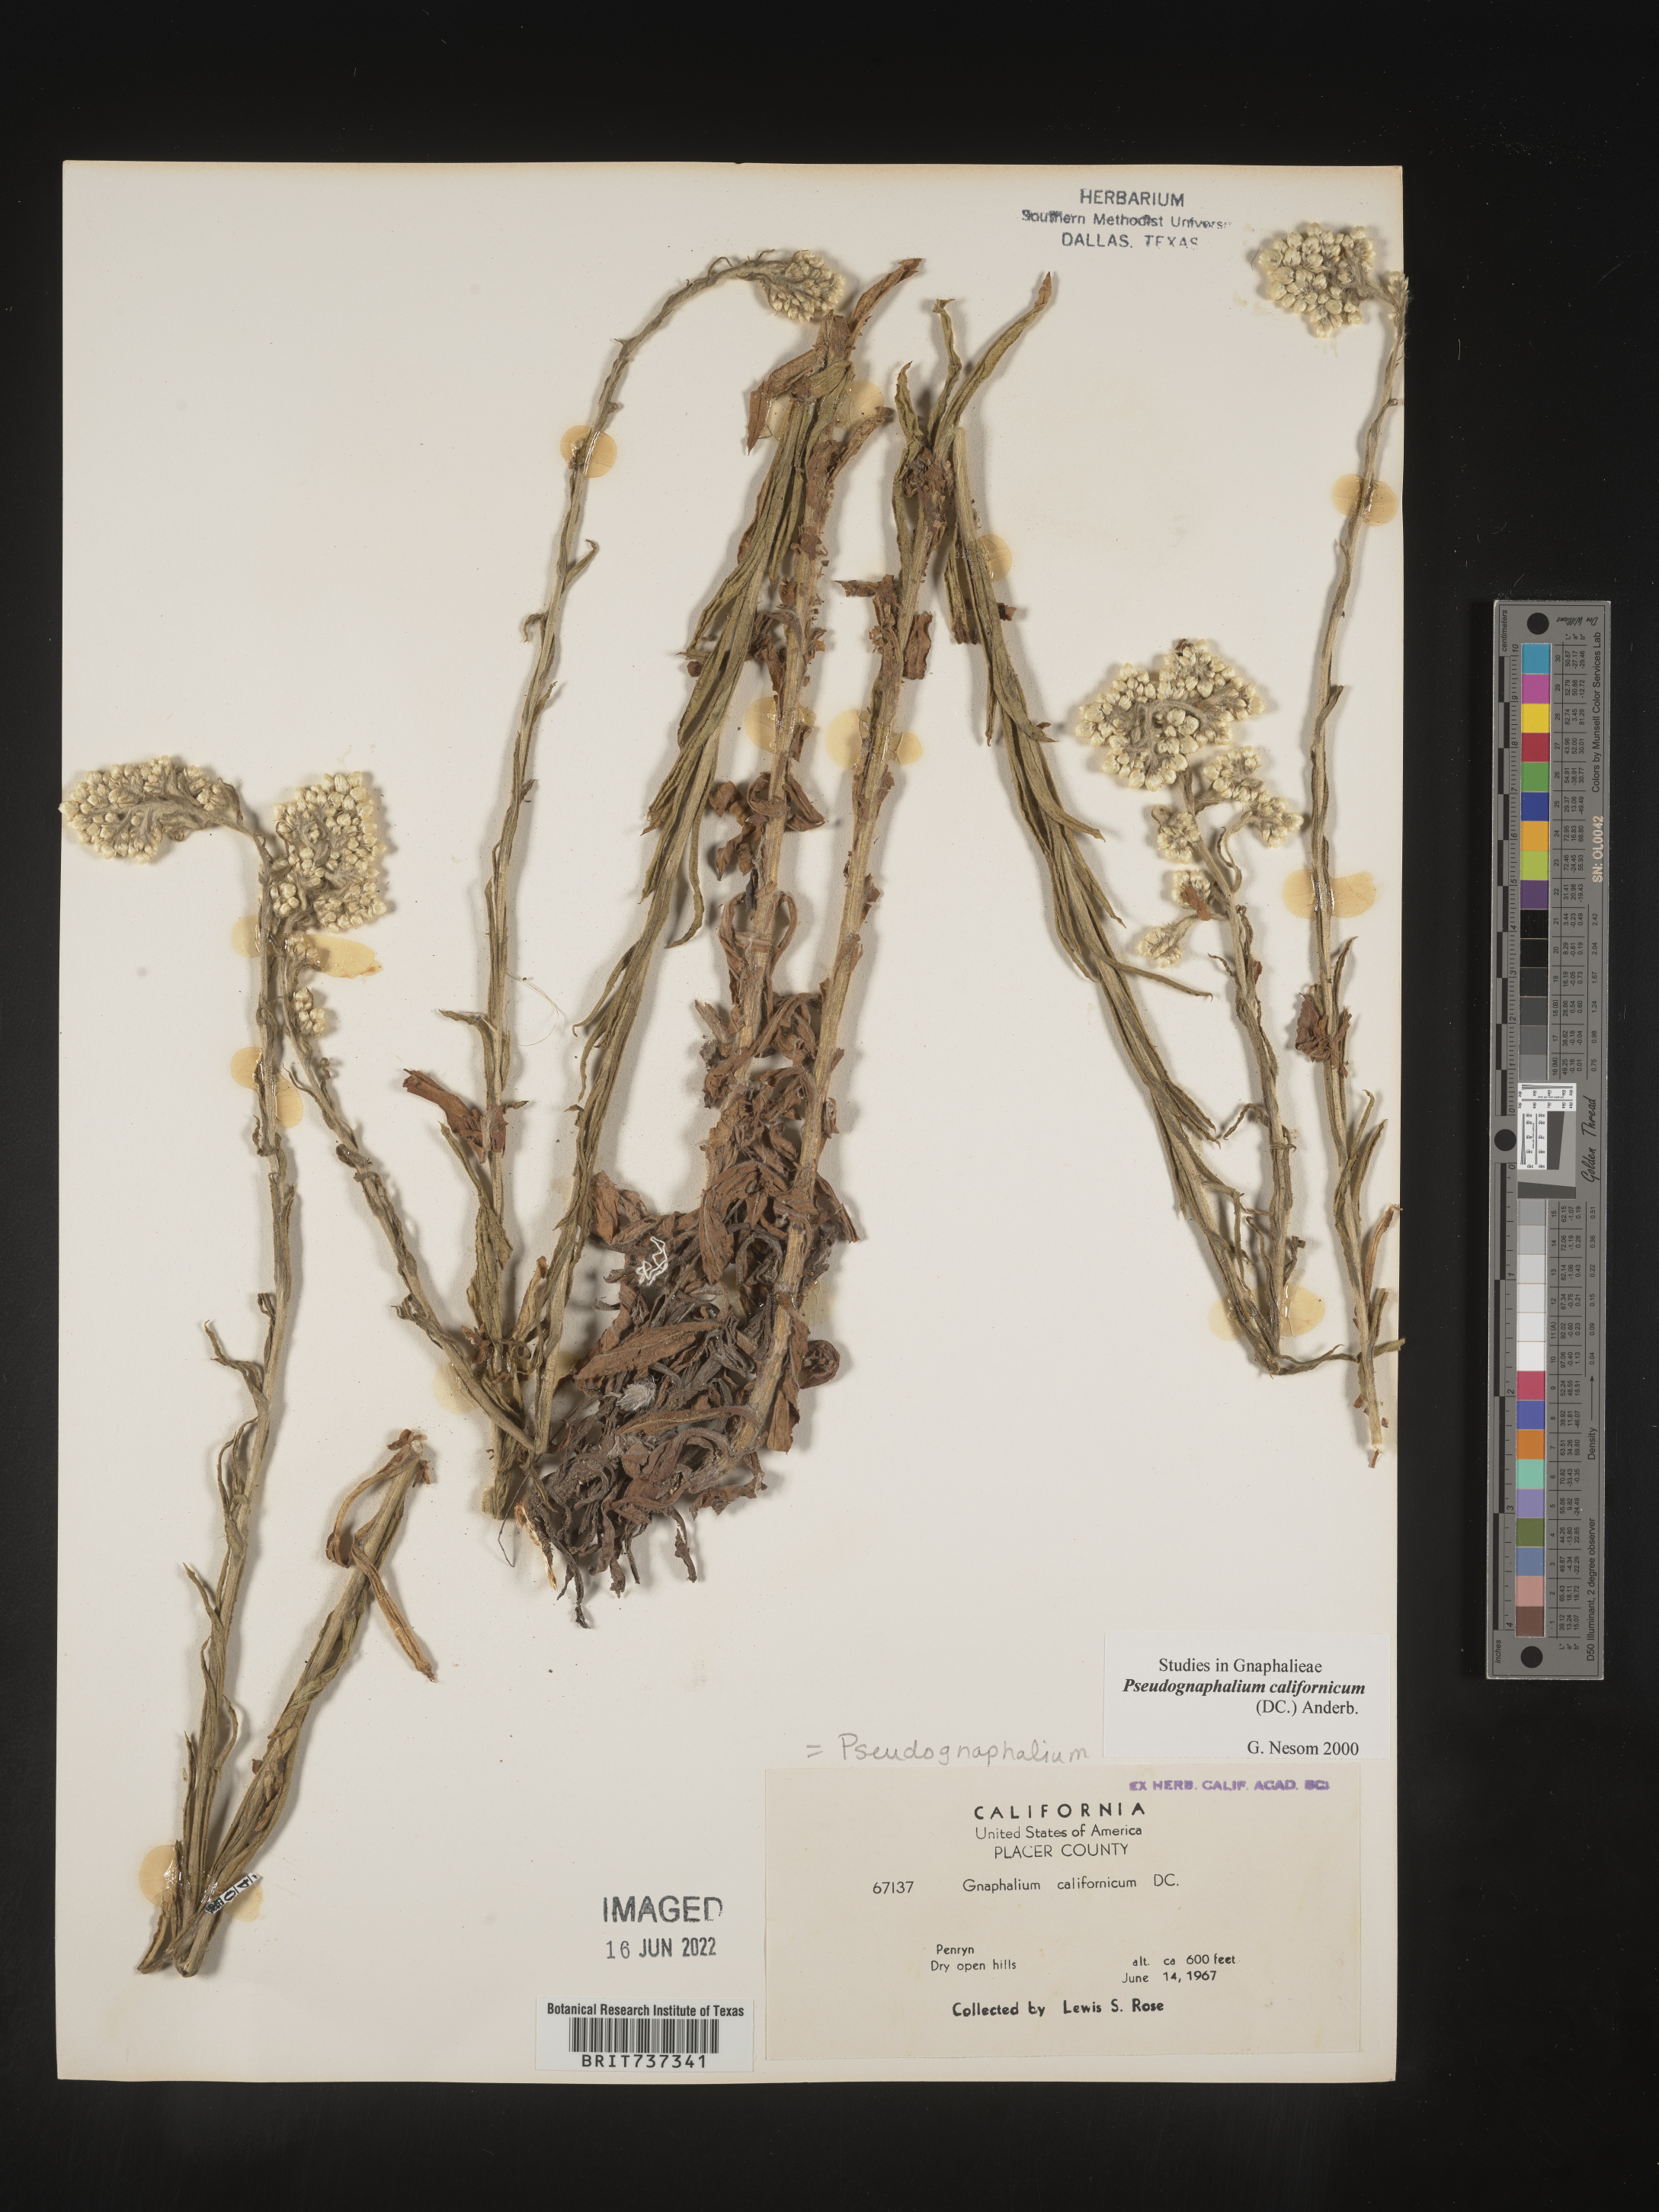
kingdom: Plantae
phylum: Tracheophyta
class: Magnoliopsida
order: Asterales
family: Asteraceae
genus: Pseudognaphalium
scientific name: Pseudognaphalium californicum
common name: California rabbit-tobacco
